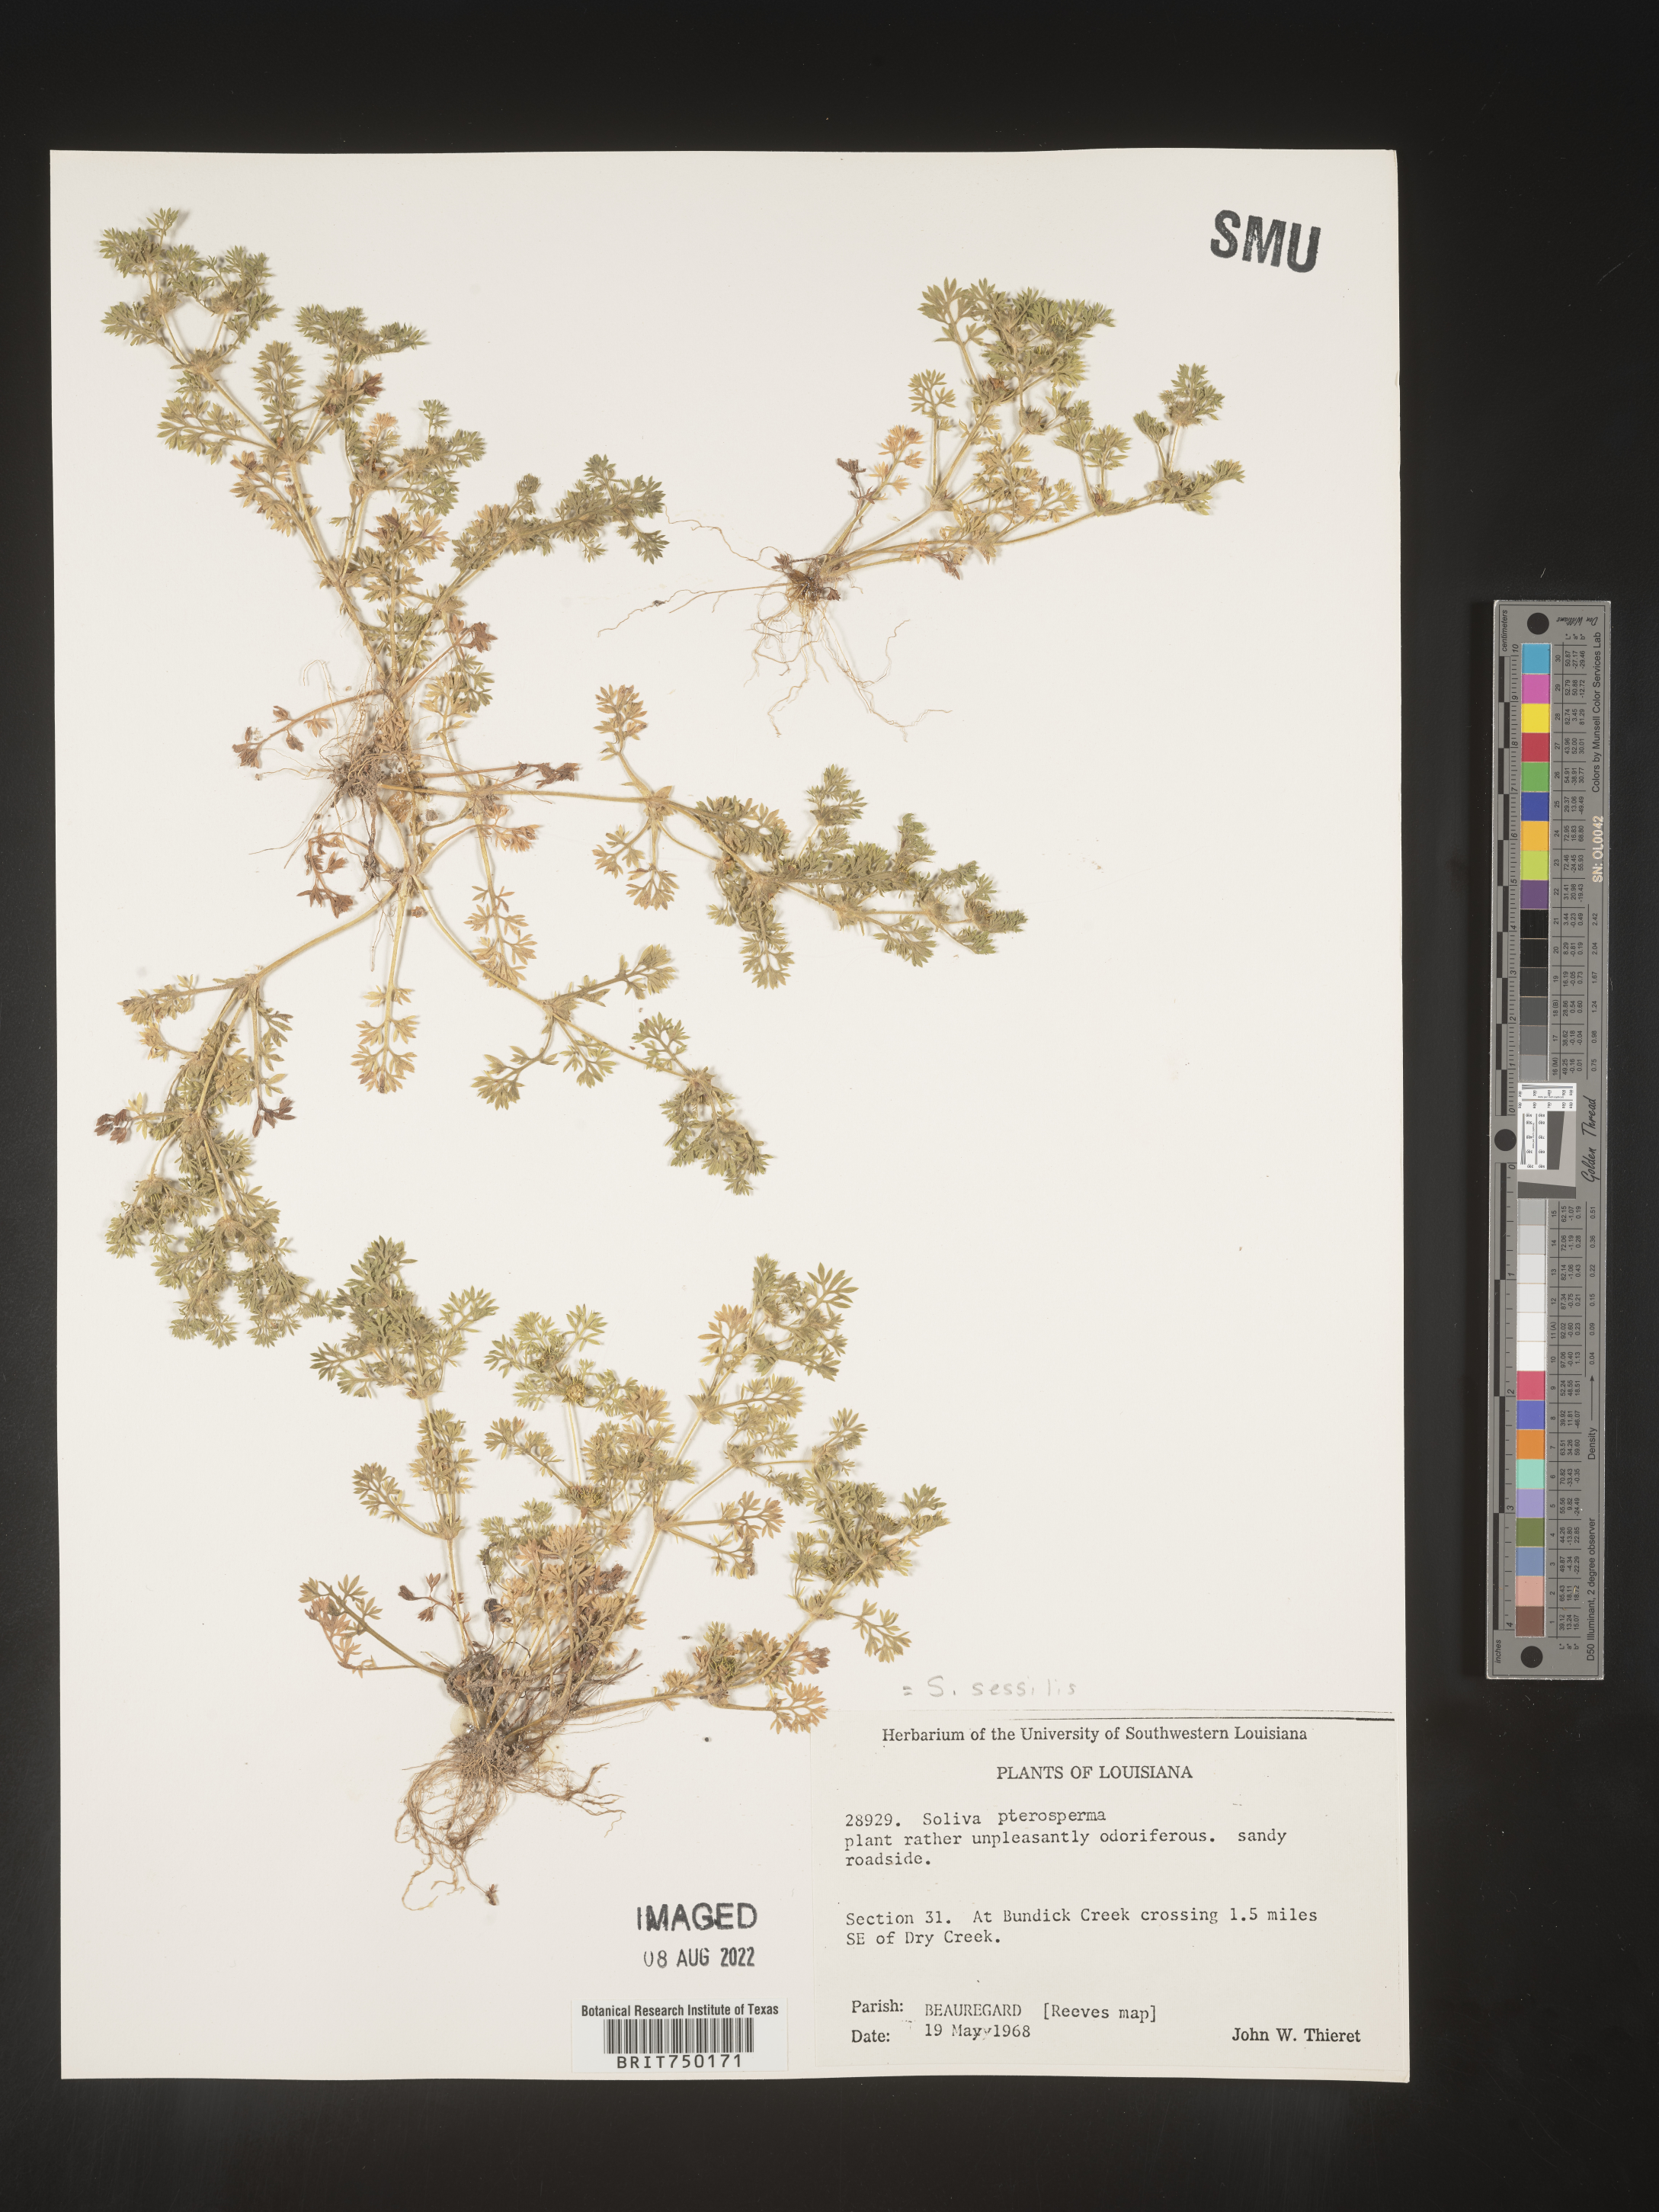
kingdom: Plantae
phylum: Tracheophyta
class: Magnoliopsida
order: Asterales
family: Asteraceae
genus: Soliva
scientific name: Soliva sessilis
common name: Field burrweed
